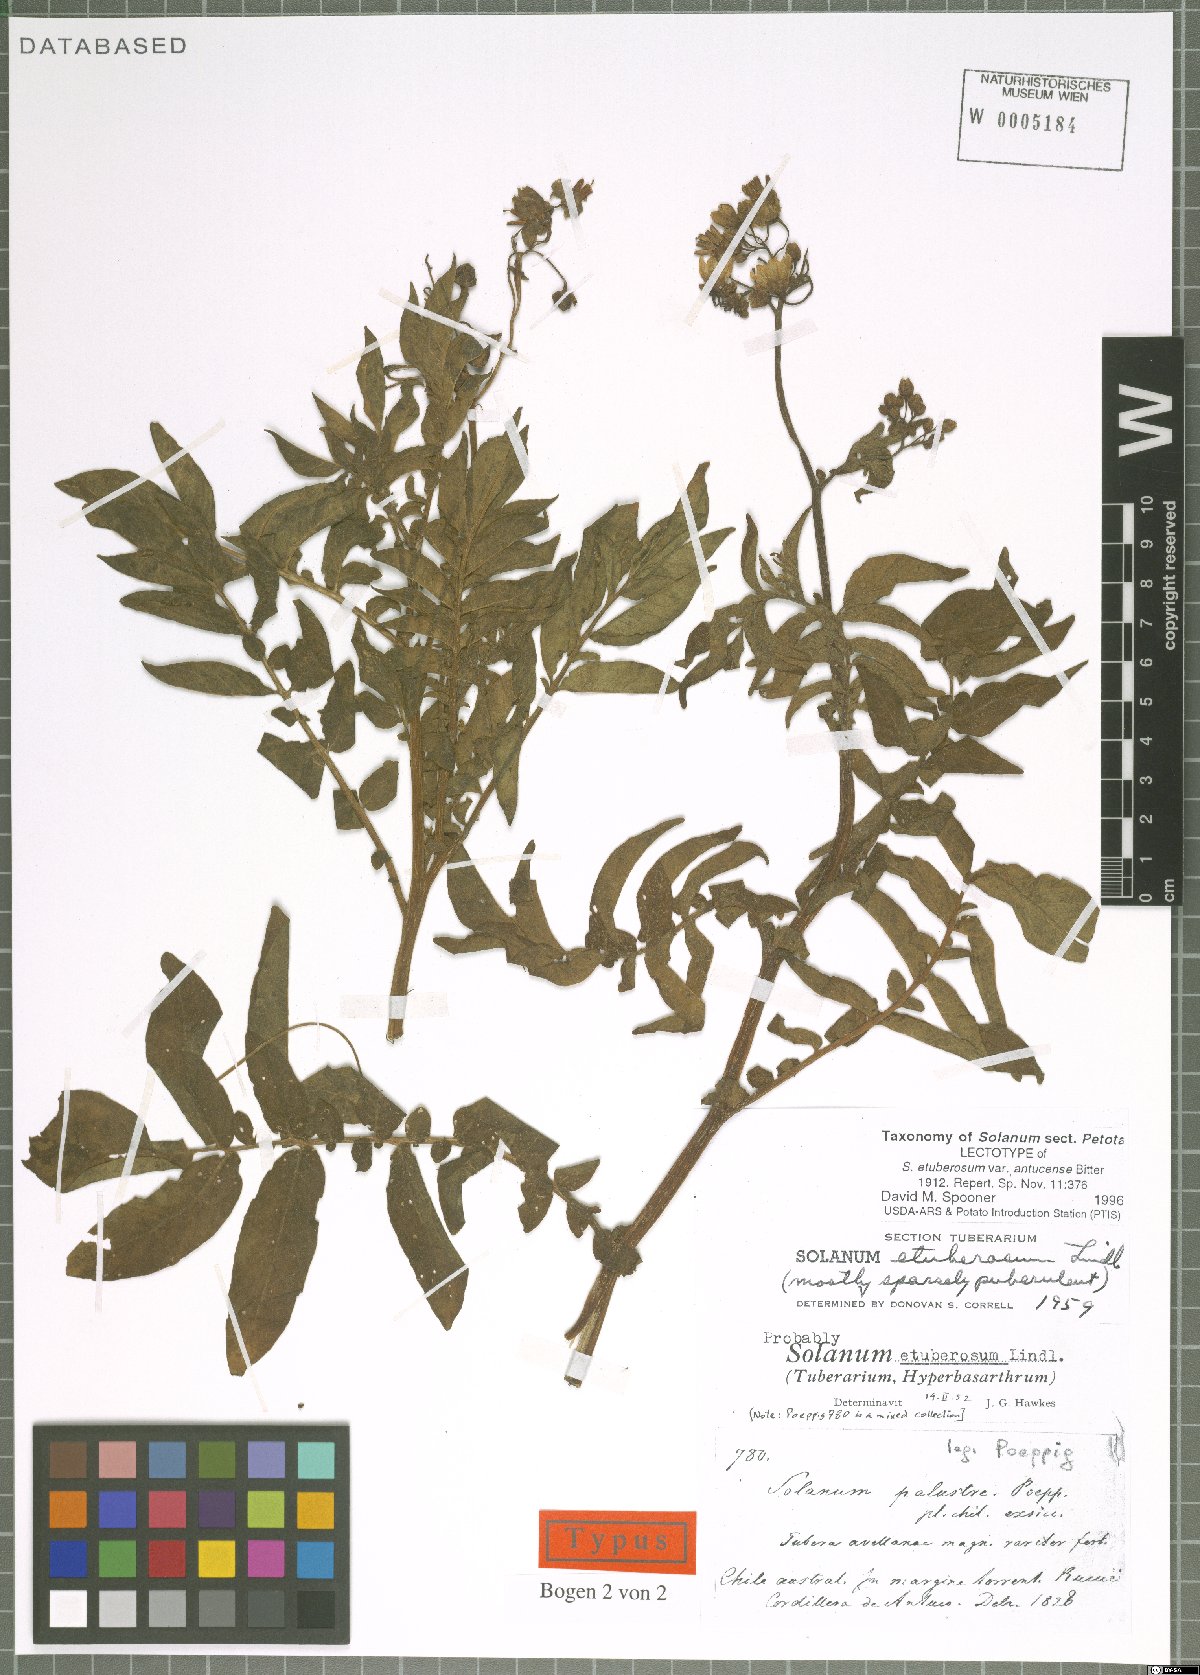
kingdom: Plantae
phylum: Tracheophyta
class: Magnoliopsida
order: Solanales
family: Solanaceae
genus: Solanum
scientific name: Solanum etuberosum
